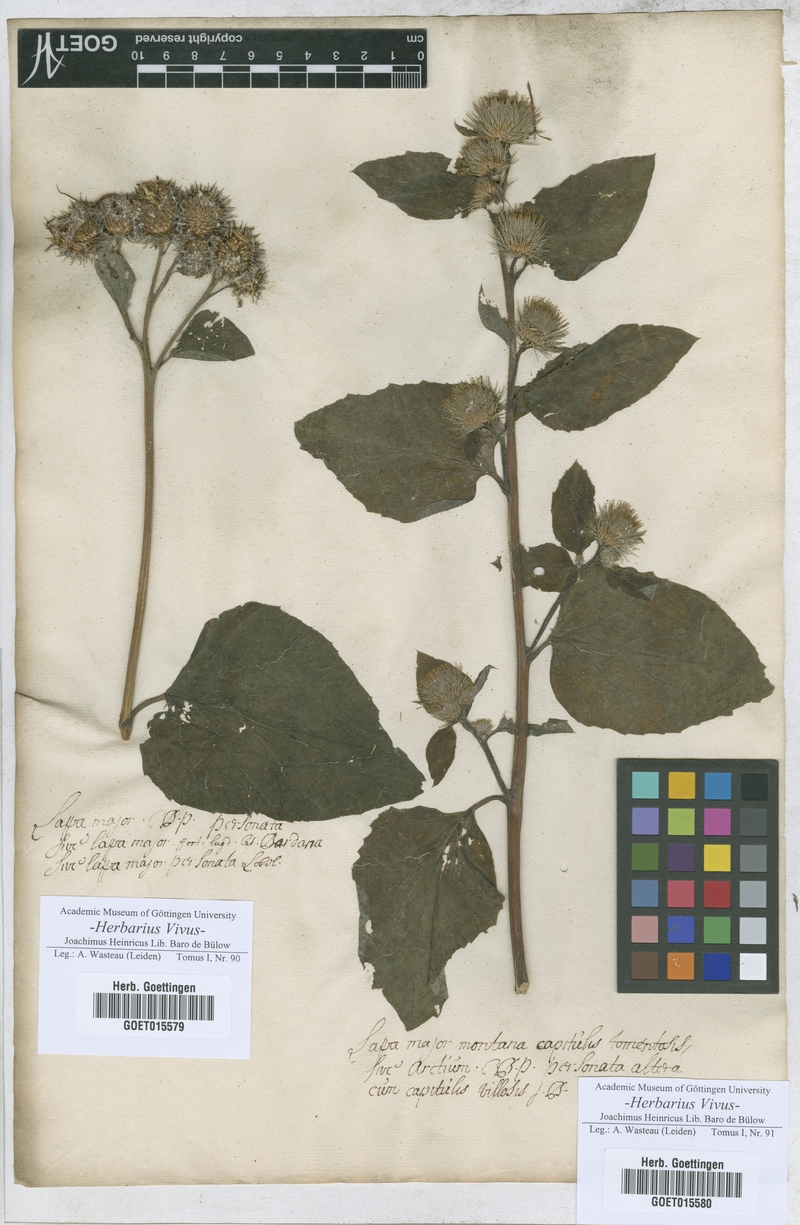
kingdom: Plantae
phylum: Tracheophyta
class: Magnoliopsida
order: Asterales
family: Asteraceae
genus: Arctium
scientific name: Arctium lappa
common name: Greater burdock
